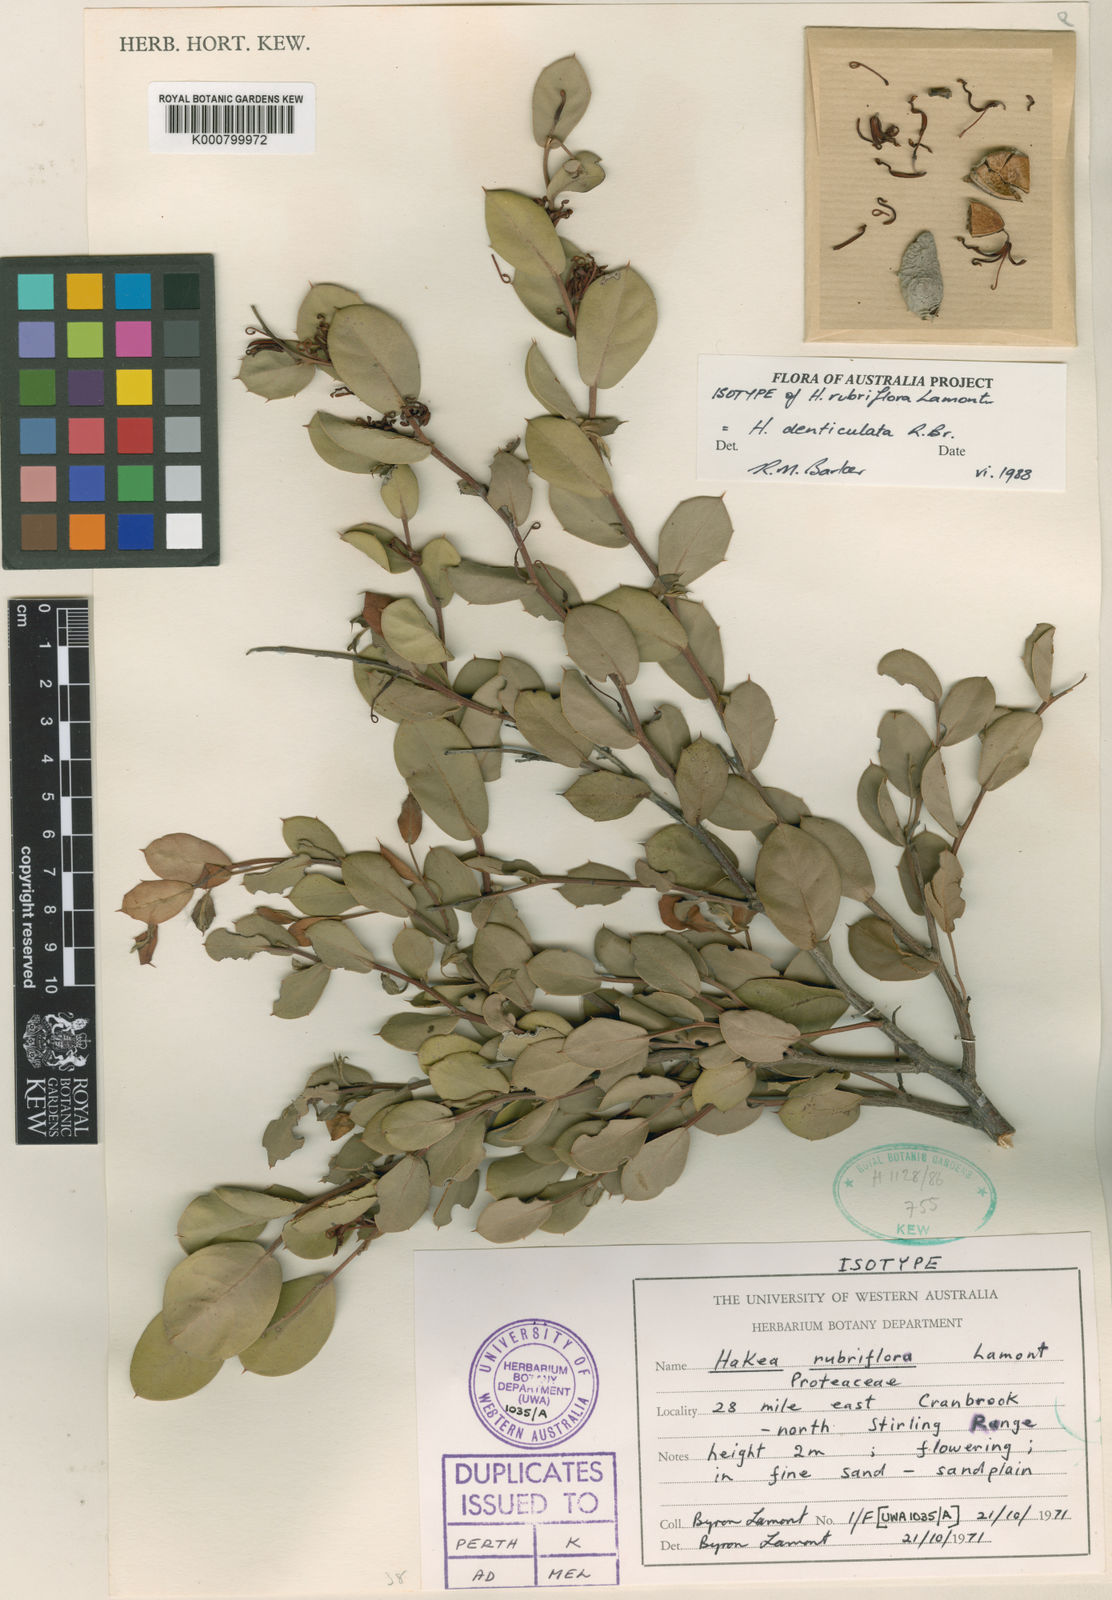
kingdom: Plantae
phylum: Tracheophyta
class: Magnoliopsida
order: Proteales
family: Proteaceae
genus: Hakea
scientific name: Hakea denticulata
